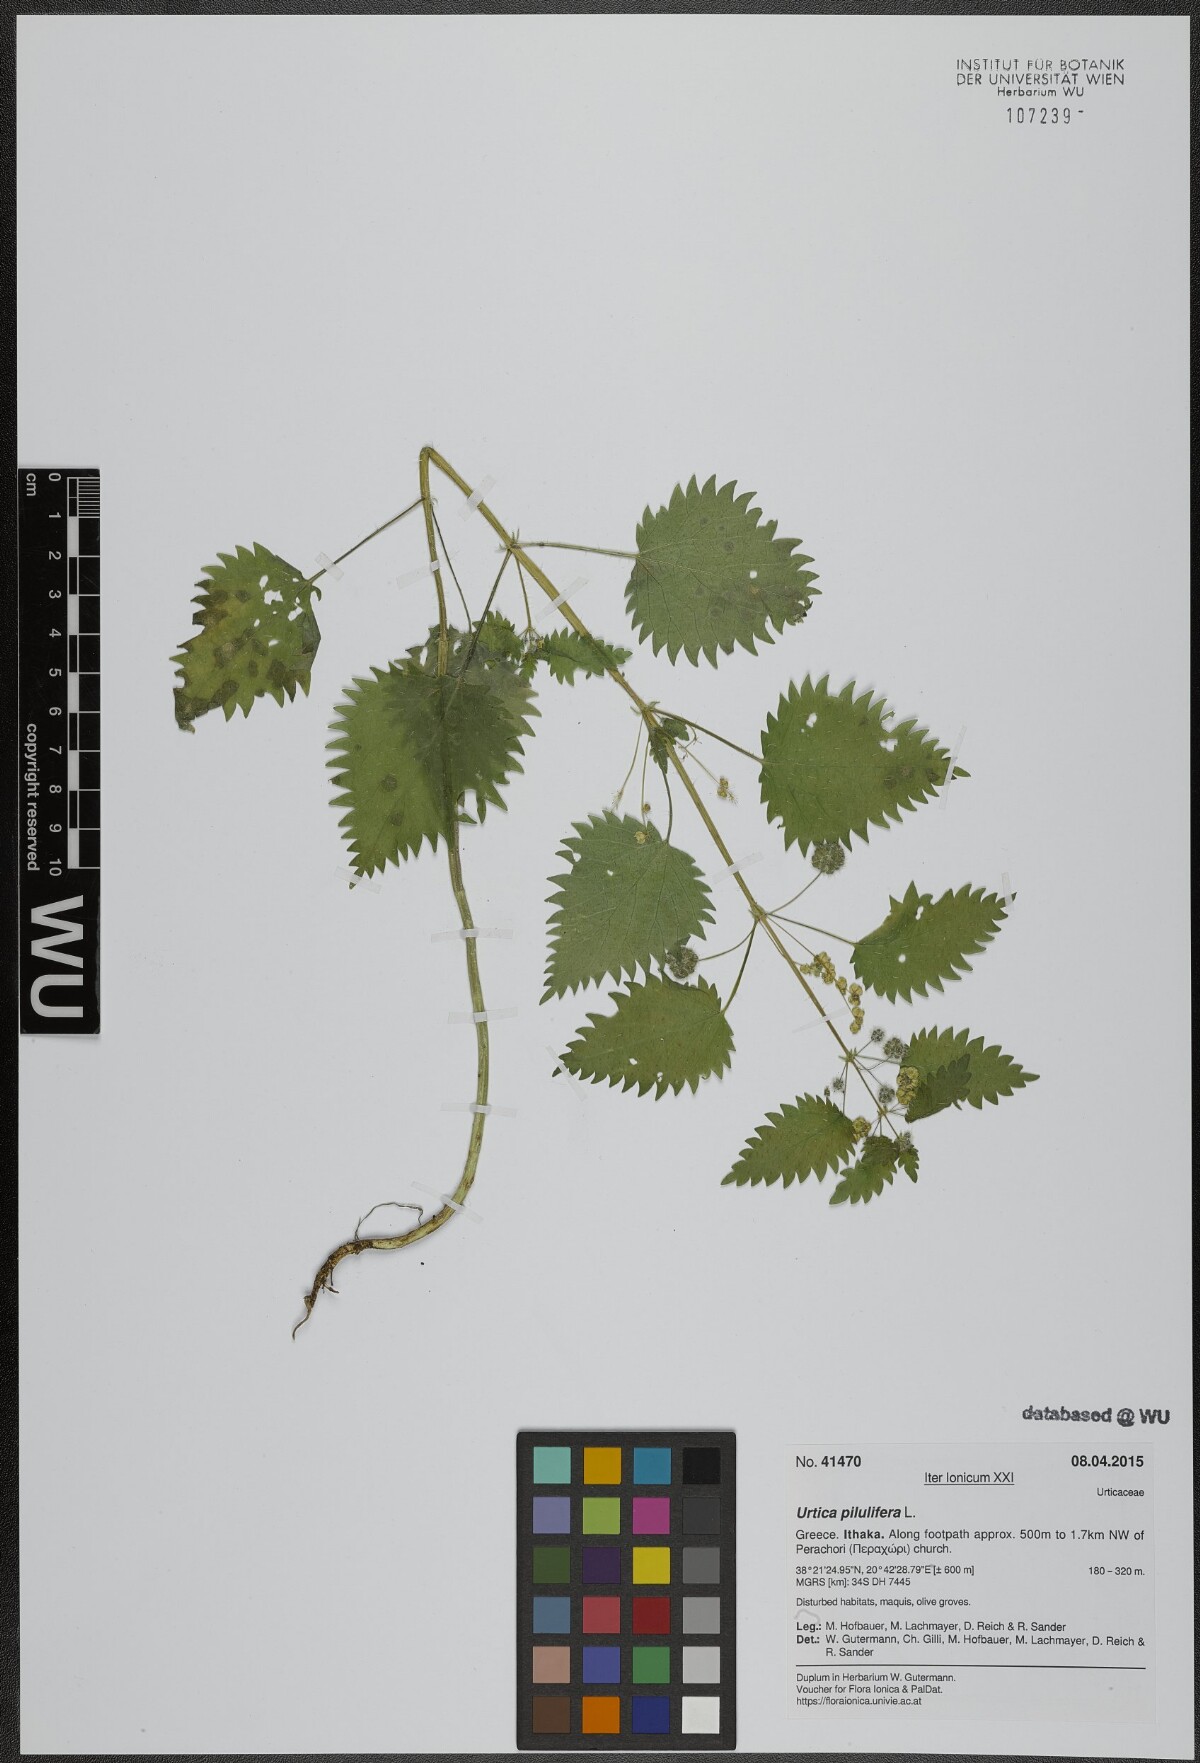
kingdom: Plantae
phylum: Tracheophyta
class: Magnoliopsida
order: Rosales
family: Urticaceae
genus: Urtica
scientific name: Urtica pilulifera
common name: Roman nettle
